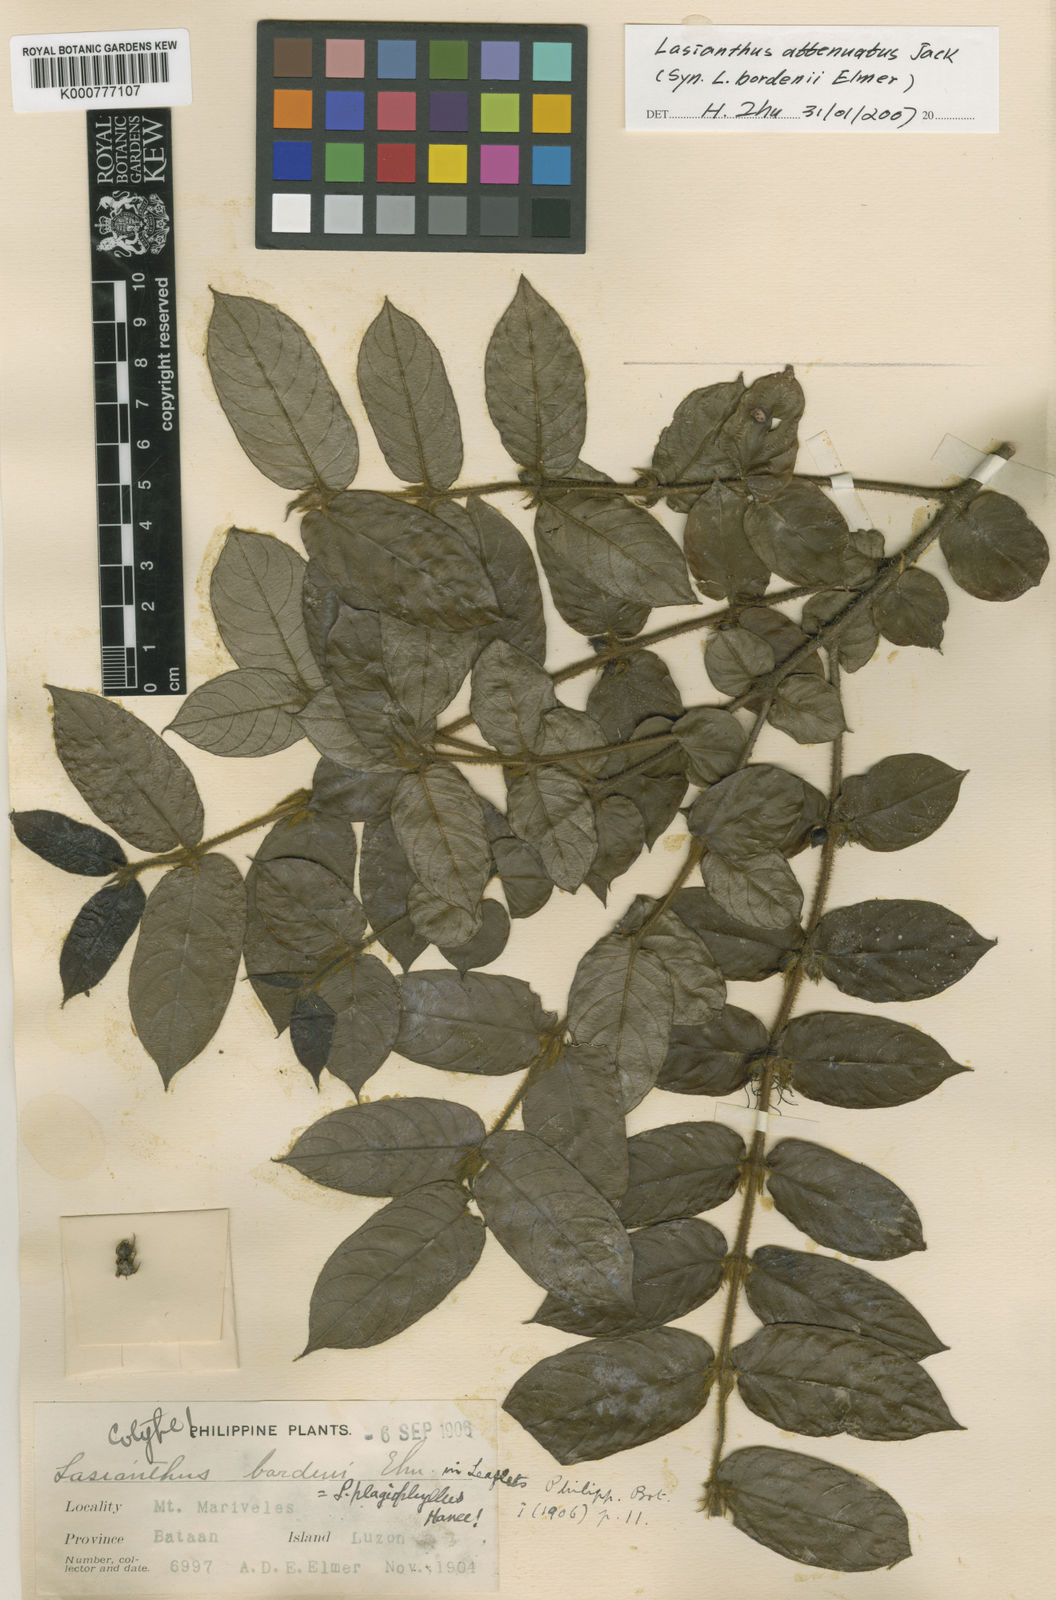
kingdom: Plantae
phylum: Tracheophyta
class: Magnoliopsida
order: Gentianales
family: Rubiaceae
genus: Lasianthus
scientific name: Lasianthus attenuatus
